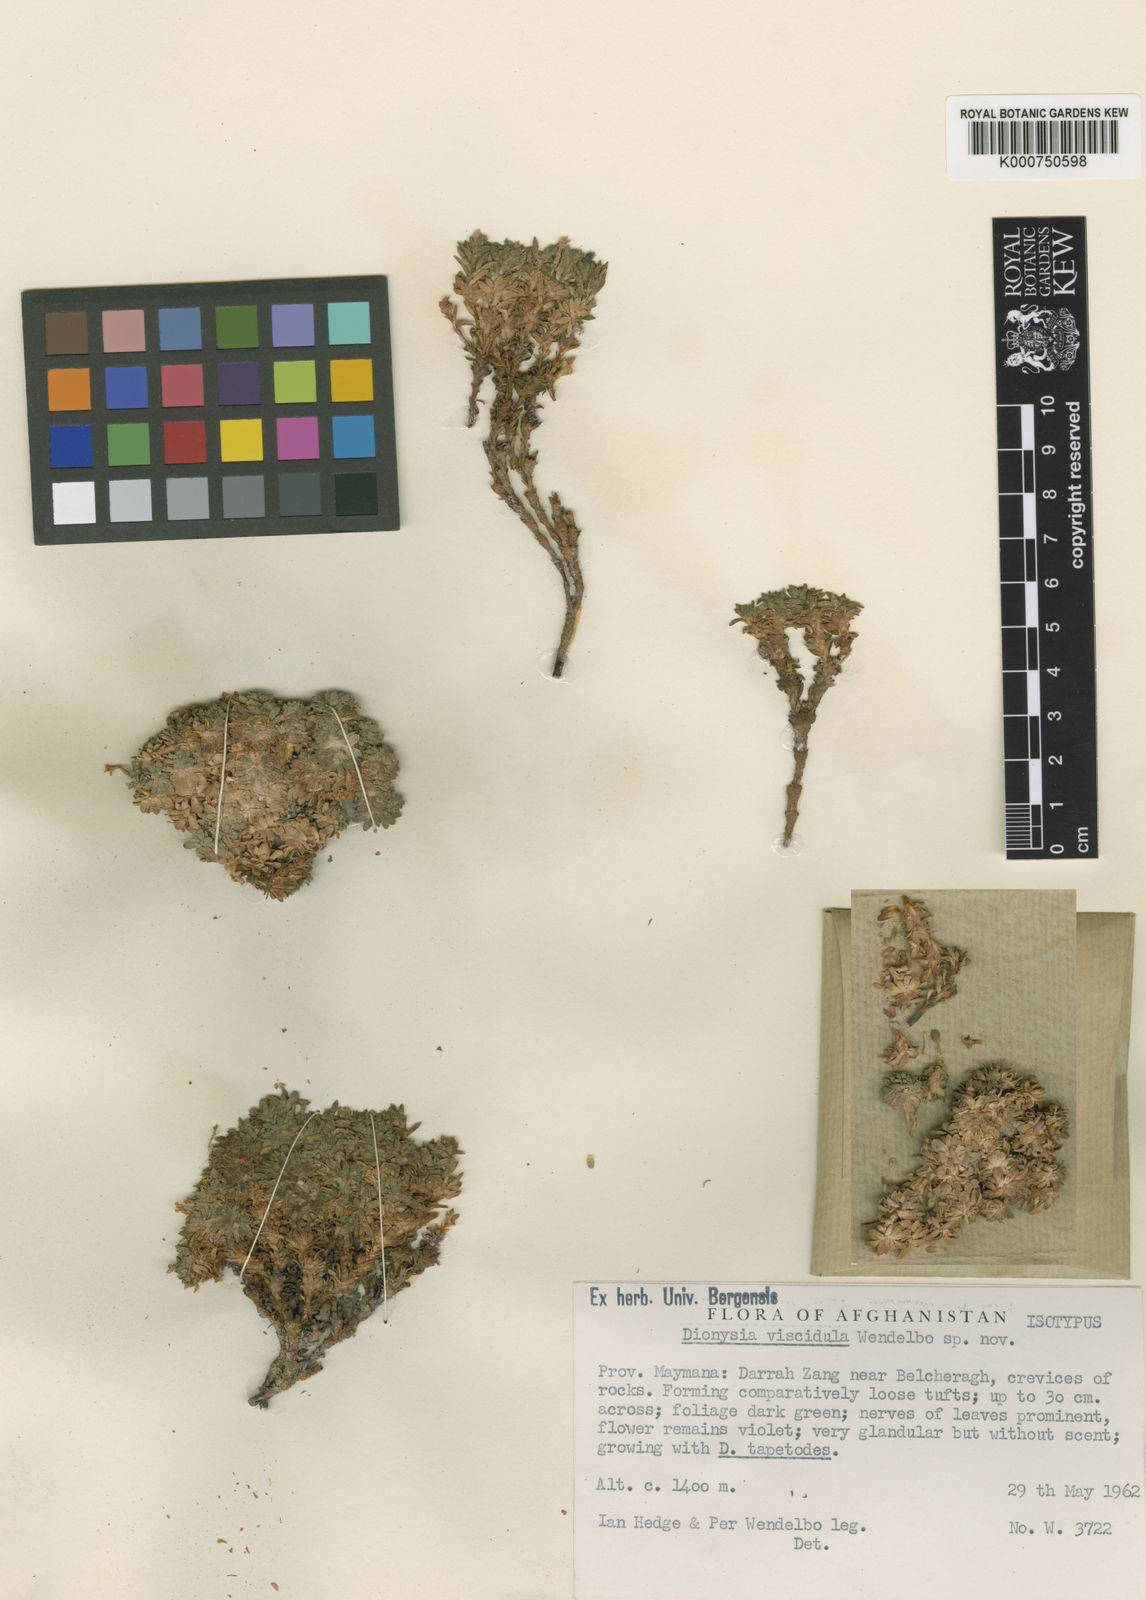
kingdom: Plantae
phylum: Tracheophyta
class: Magnoliopsida
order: Ericales
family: Primulaceae
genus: Dionysia
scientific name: Dionysia viscidula
